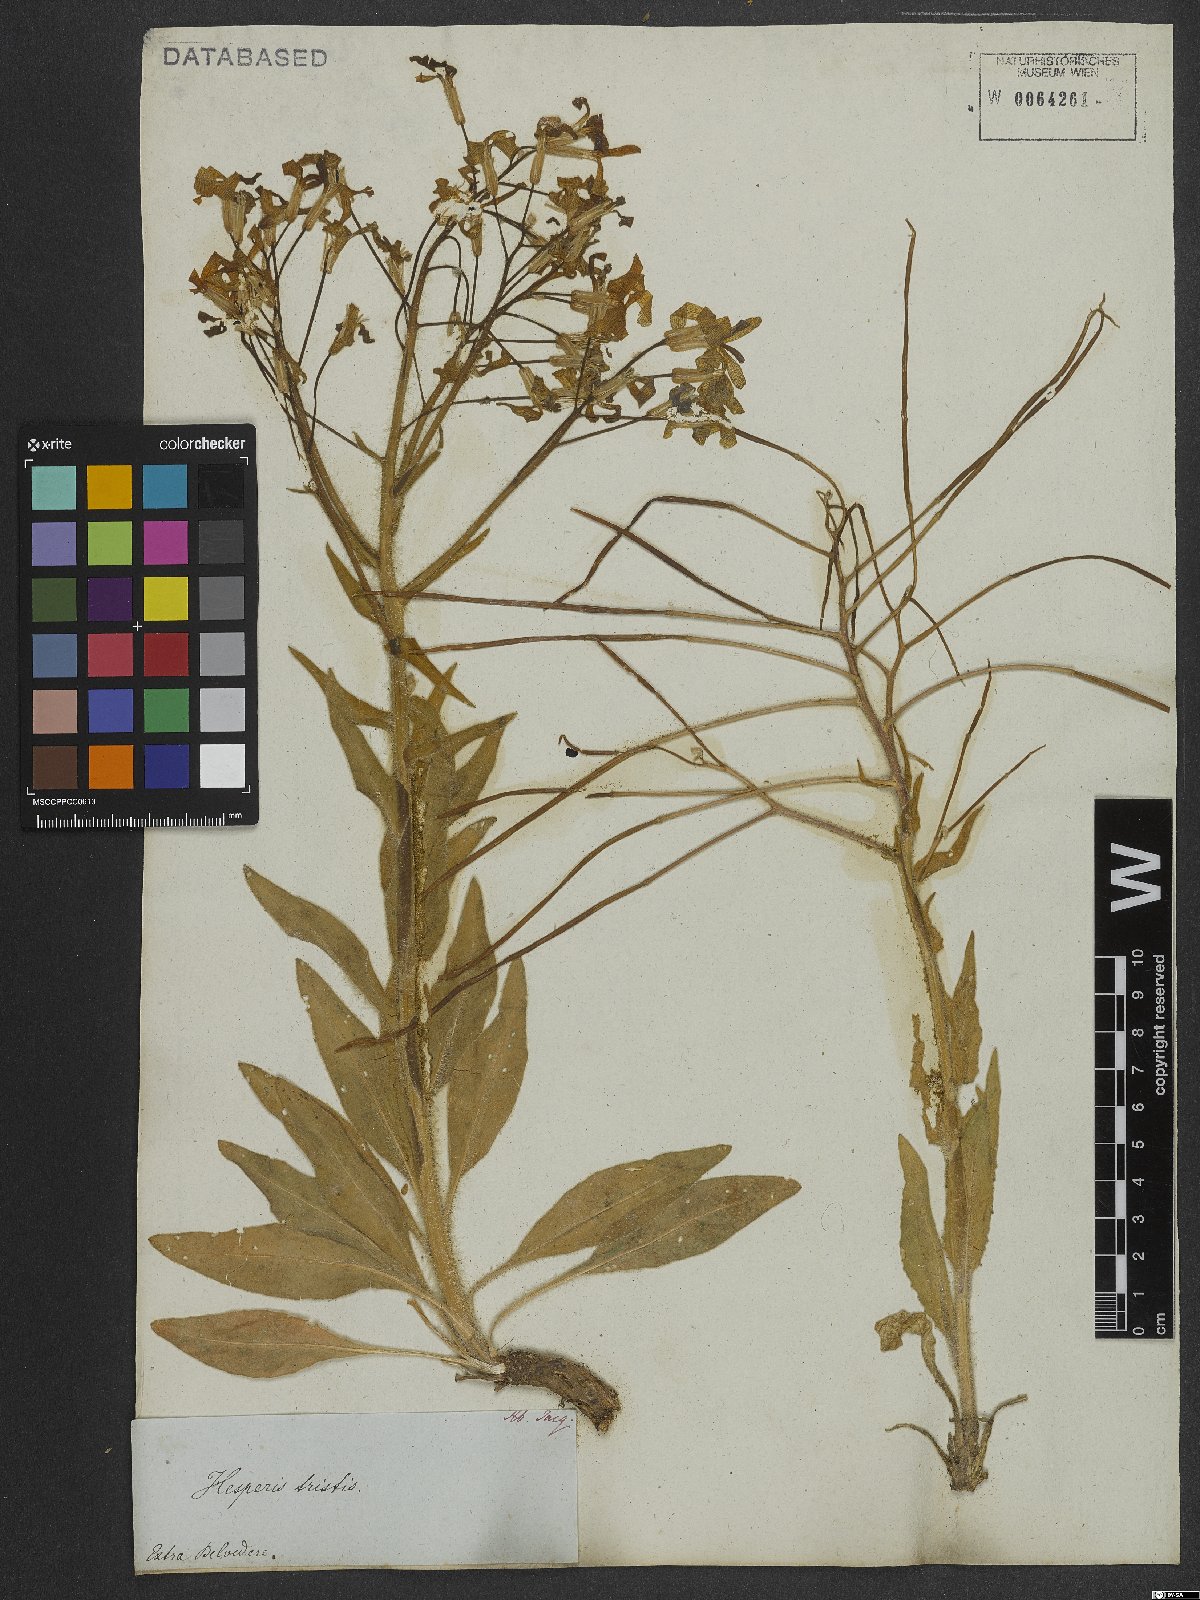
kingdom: Plantae
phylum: Tracheophyta
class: Magnoliopsida
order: Brassicales
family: Brassicaceae
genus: Hesperis
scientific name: Hesperis tristis
